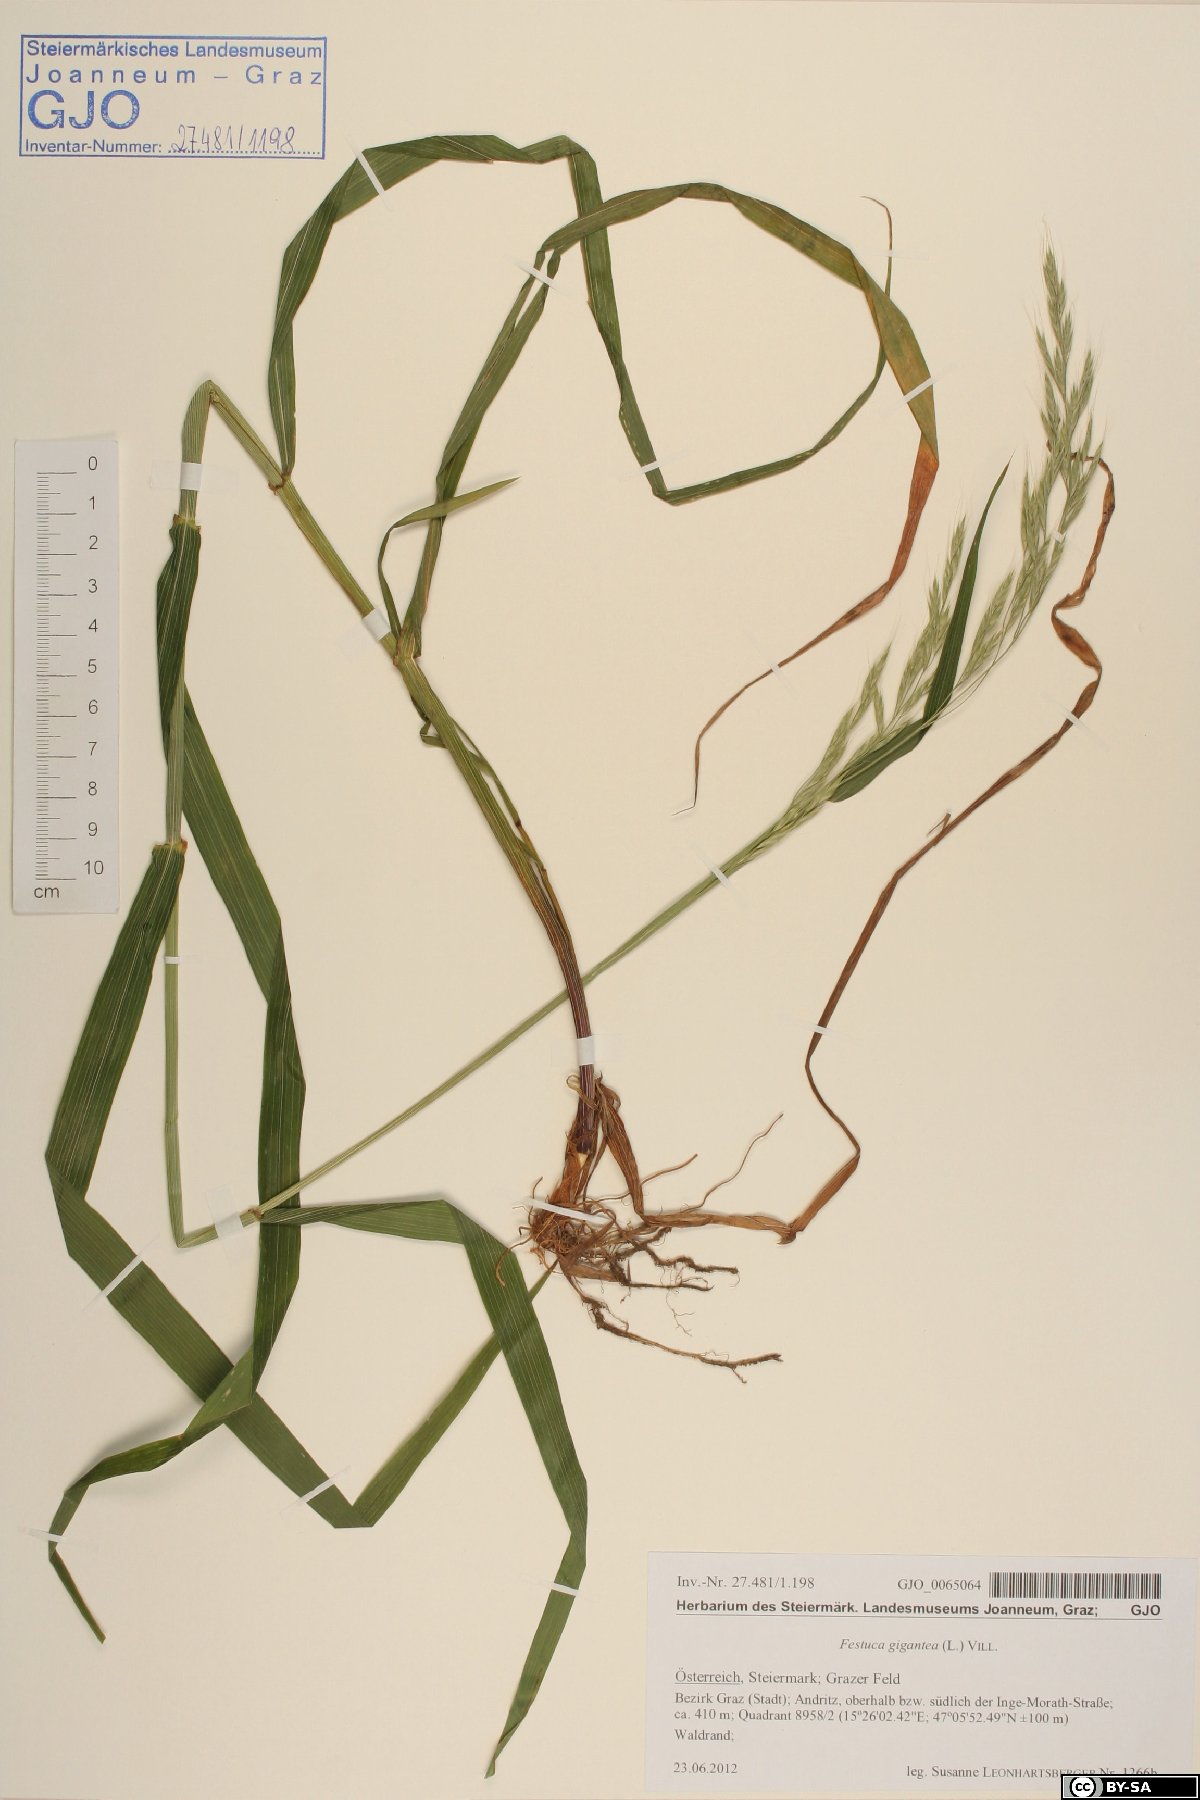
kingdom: Plantae
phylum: Tracheophyta
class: Liliopsida
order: Poales
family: Poaceae
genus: Lolium
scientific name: Lolium giganteum
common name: Giant fescue
